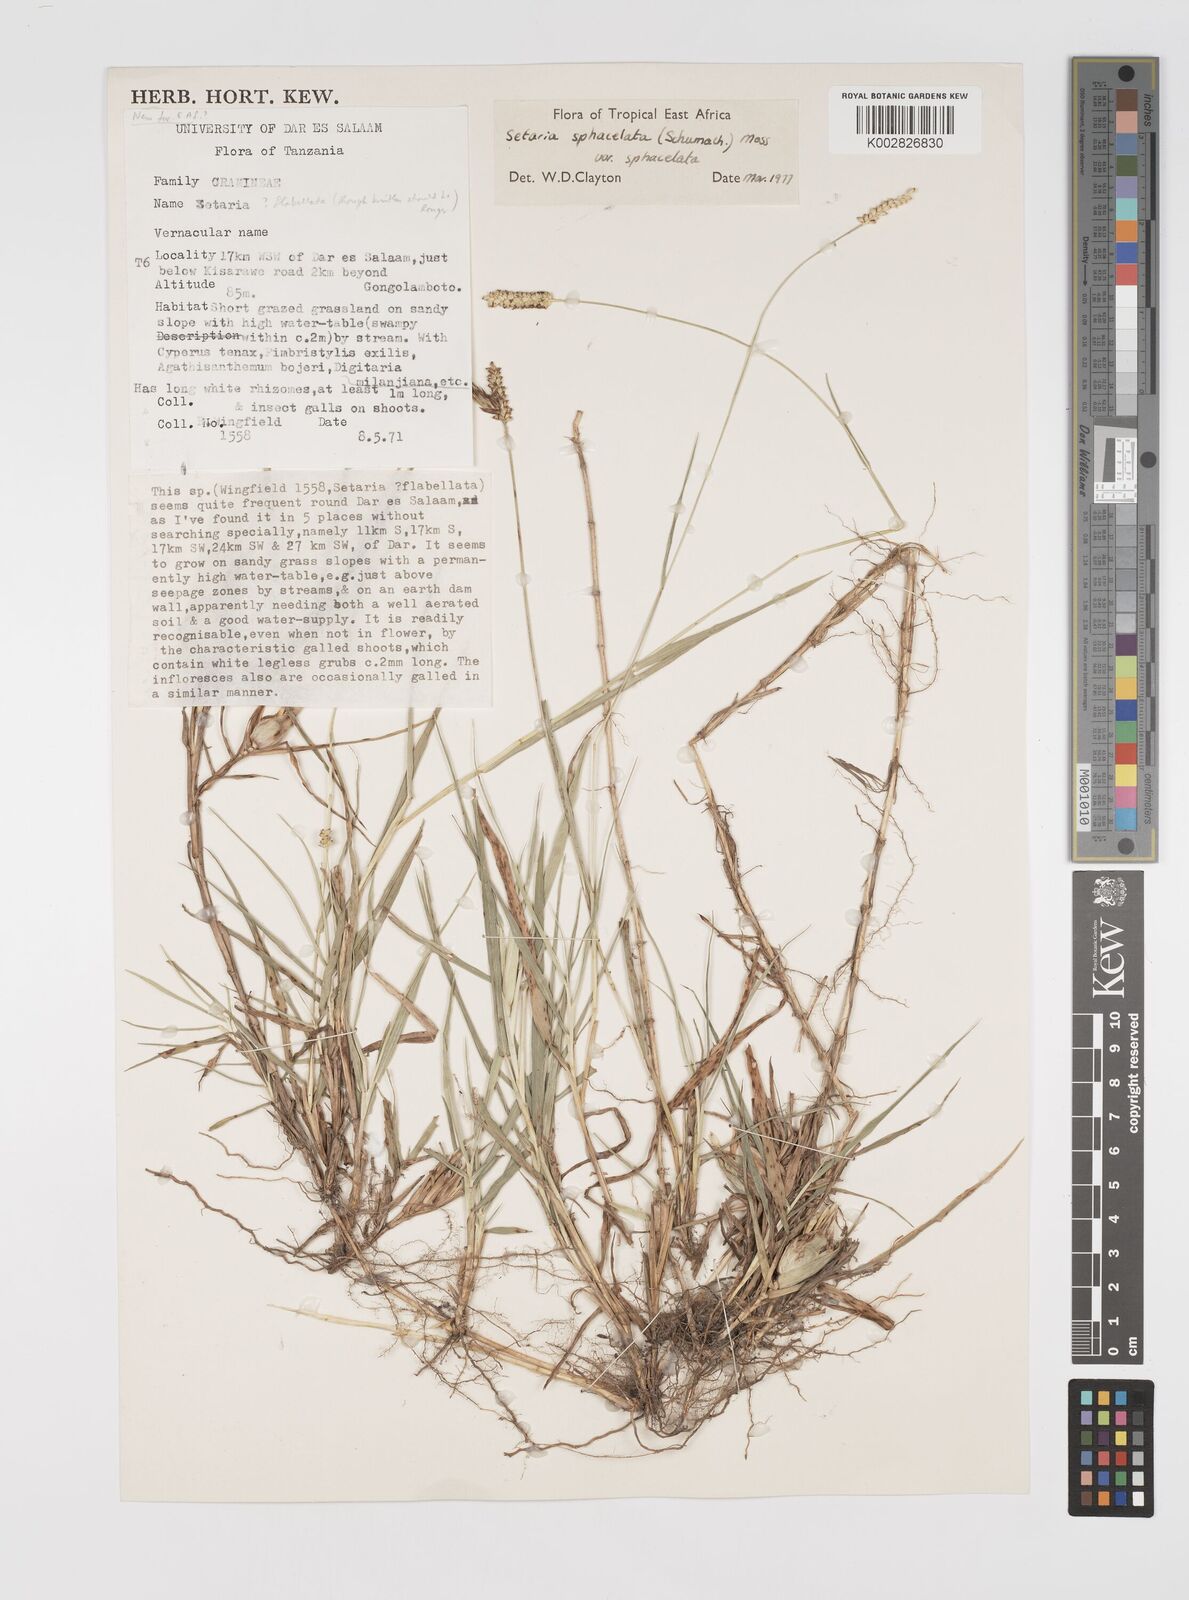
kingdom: Plantae
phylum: Tracheophyta
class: Liliopsida
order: Poales
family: Poaceae
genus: Setaria
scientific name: Setaria sphacelata
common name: African bristlegrass
